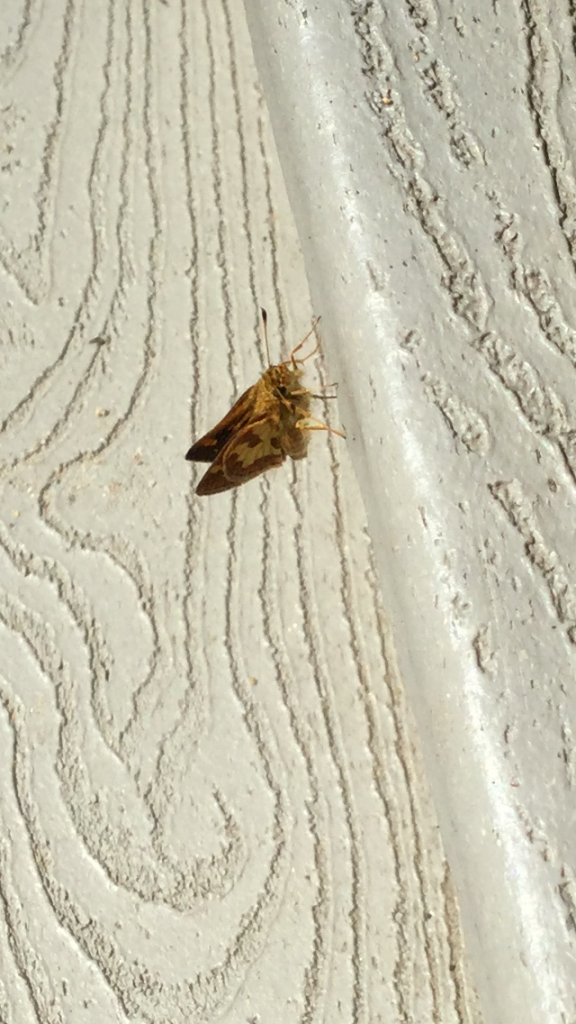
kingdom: Animalia
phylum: Arthropoda
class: Insecta
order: Lepidoptera
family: Hesperiidae
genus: Polites
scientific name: Polites coras
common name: Peck's Skipper
